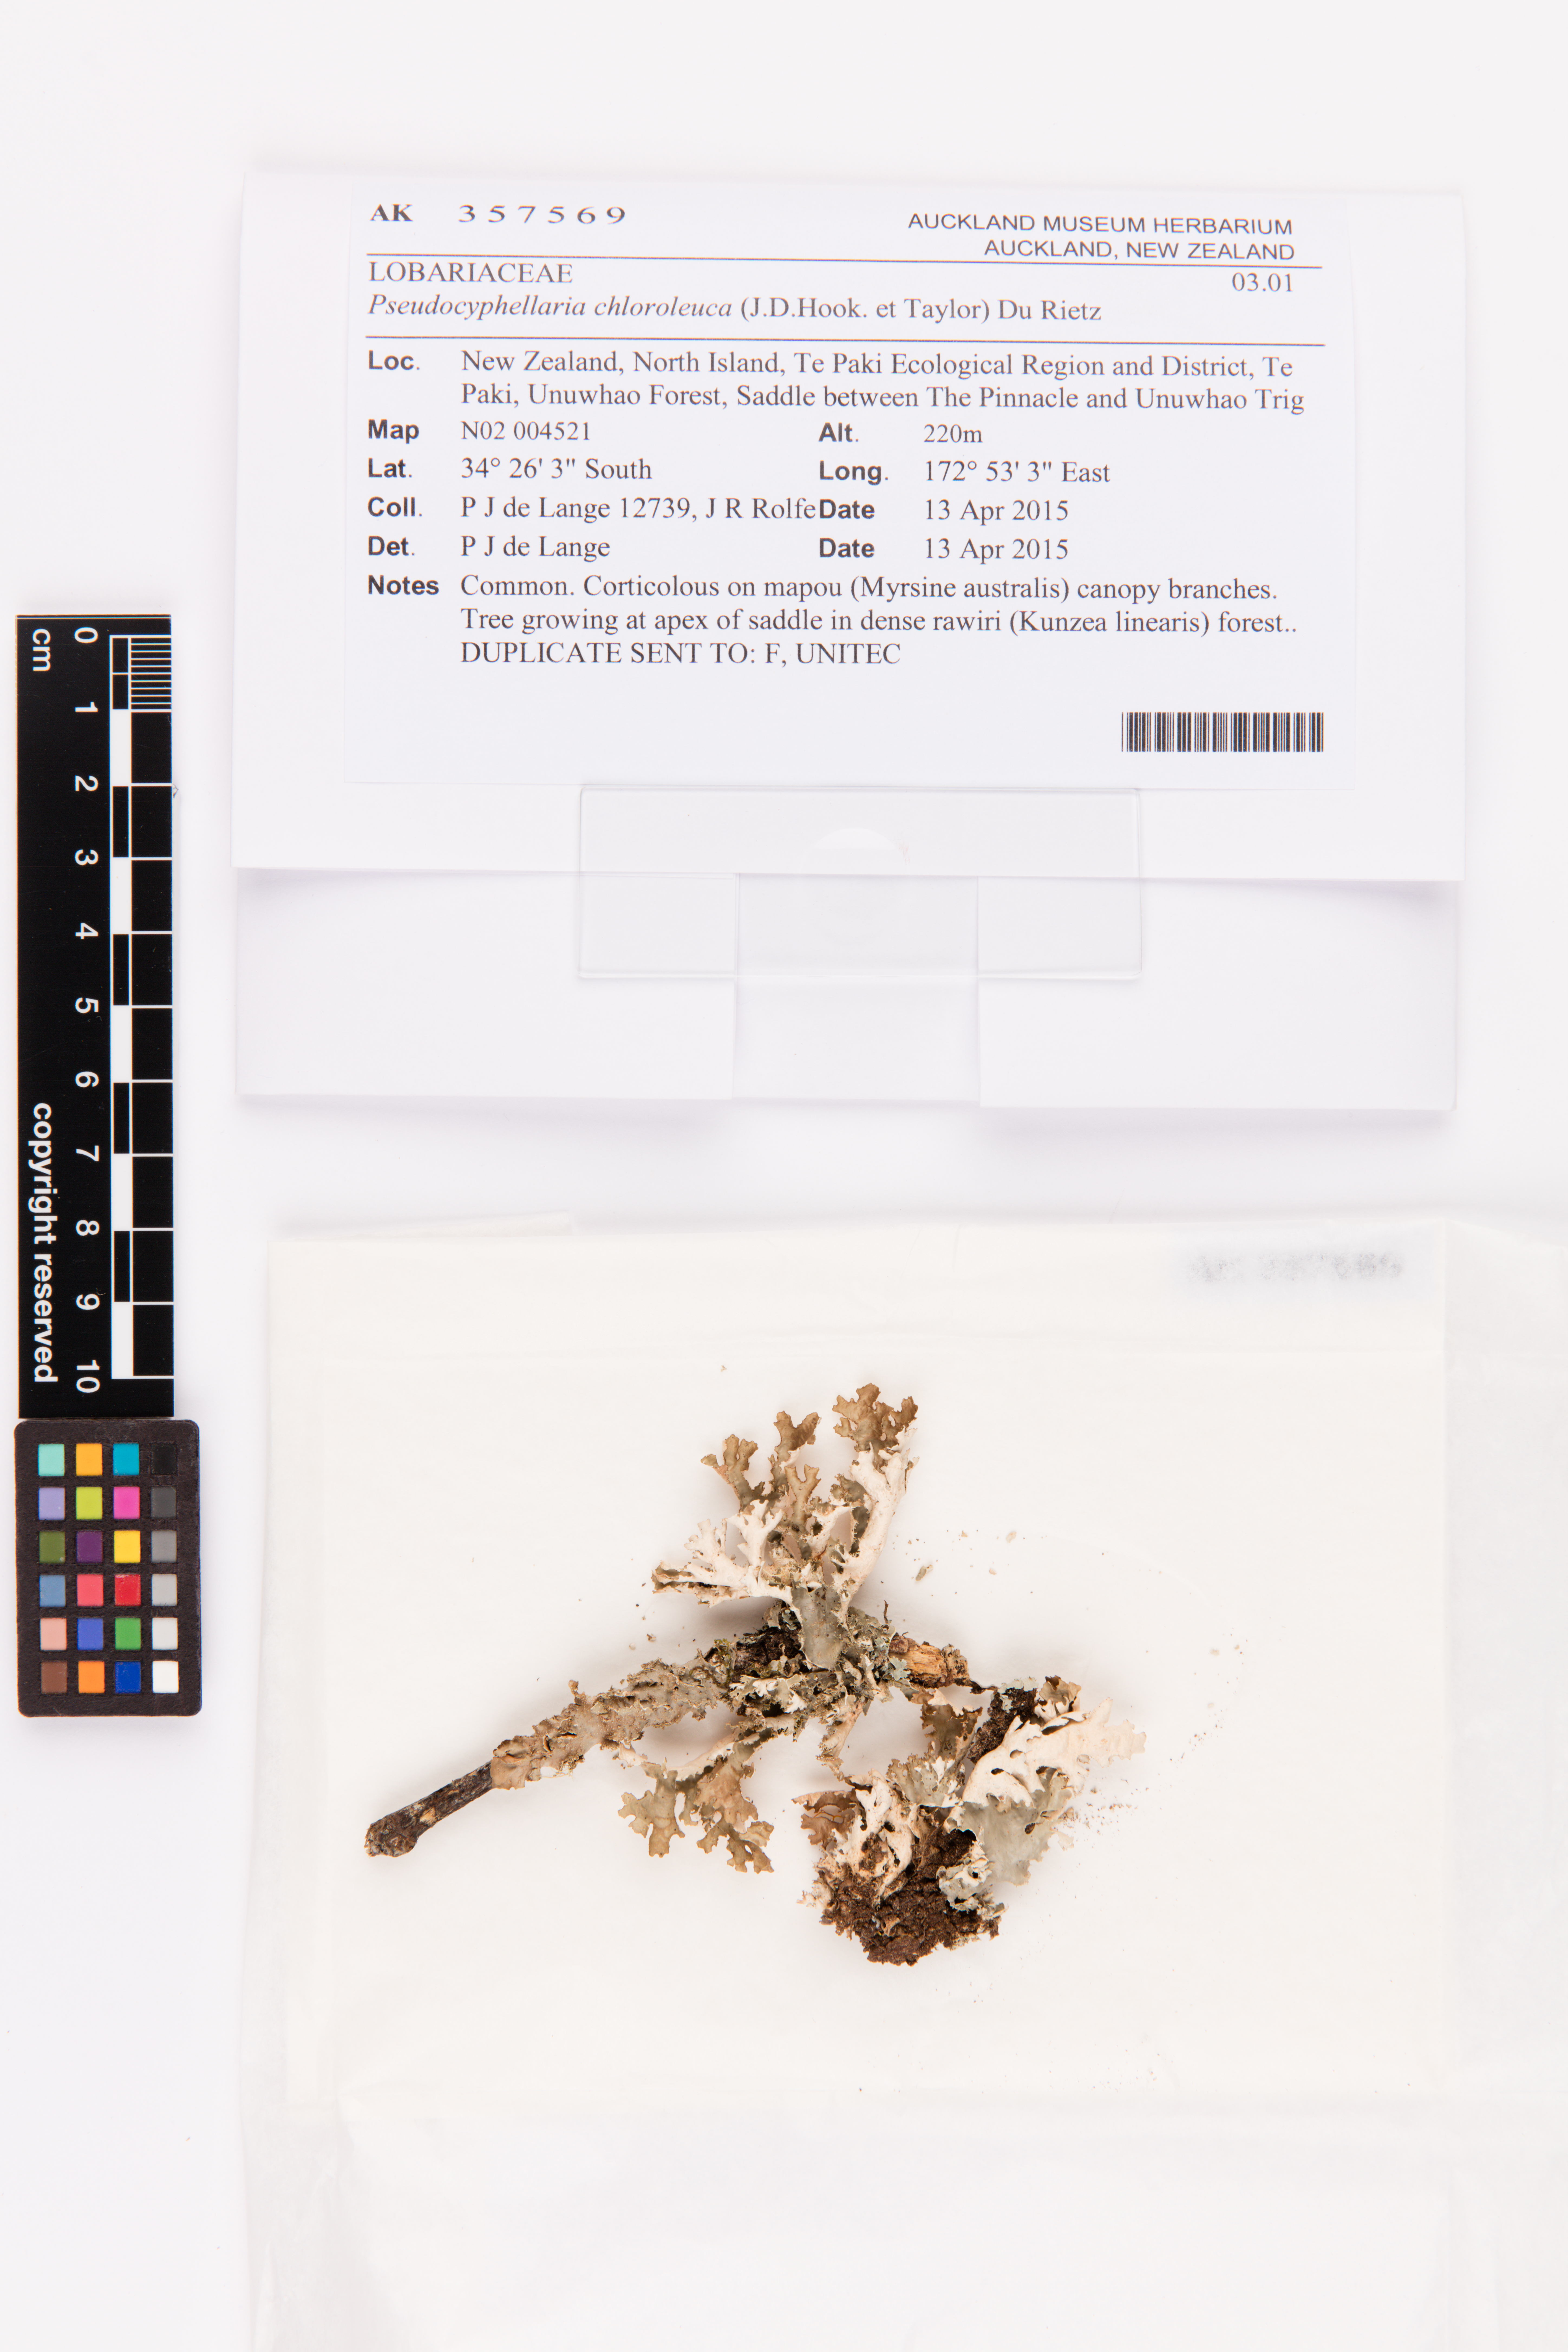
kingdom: Fungi
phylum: Ascomycota
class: Lecanoromycetes
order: Peltigerales
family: Lobariaceae
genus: Pseudocyphellaria
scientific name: Pseudocyphellaria chloroleuca
